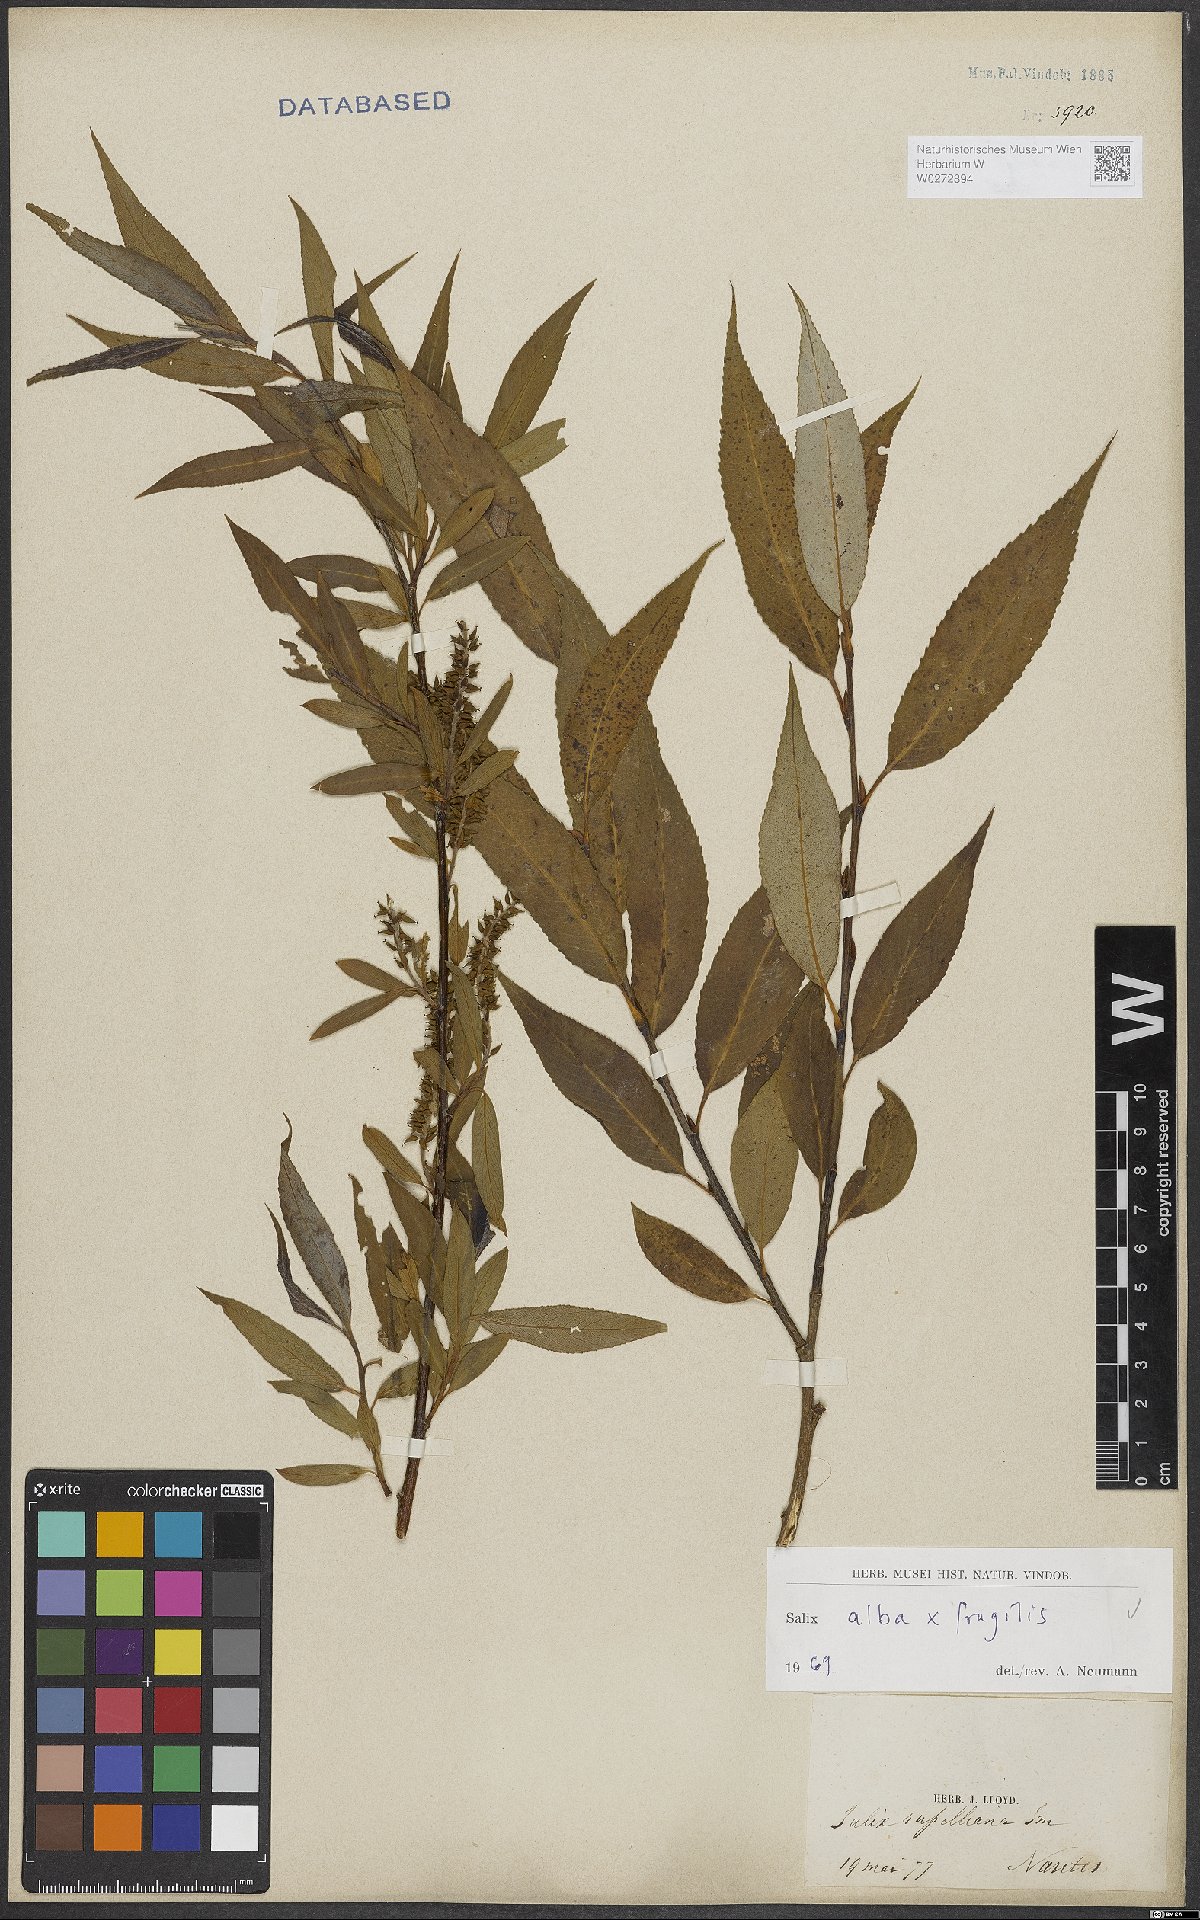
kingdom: Plantae
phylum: Tracheophyta
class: Magnoliopsida
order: Malpighiales
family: Salicaceae
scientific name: Salicaceae
